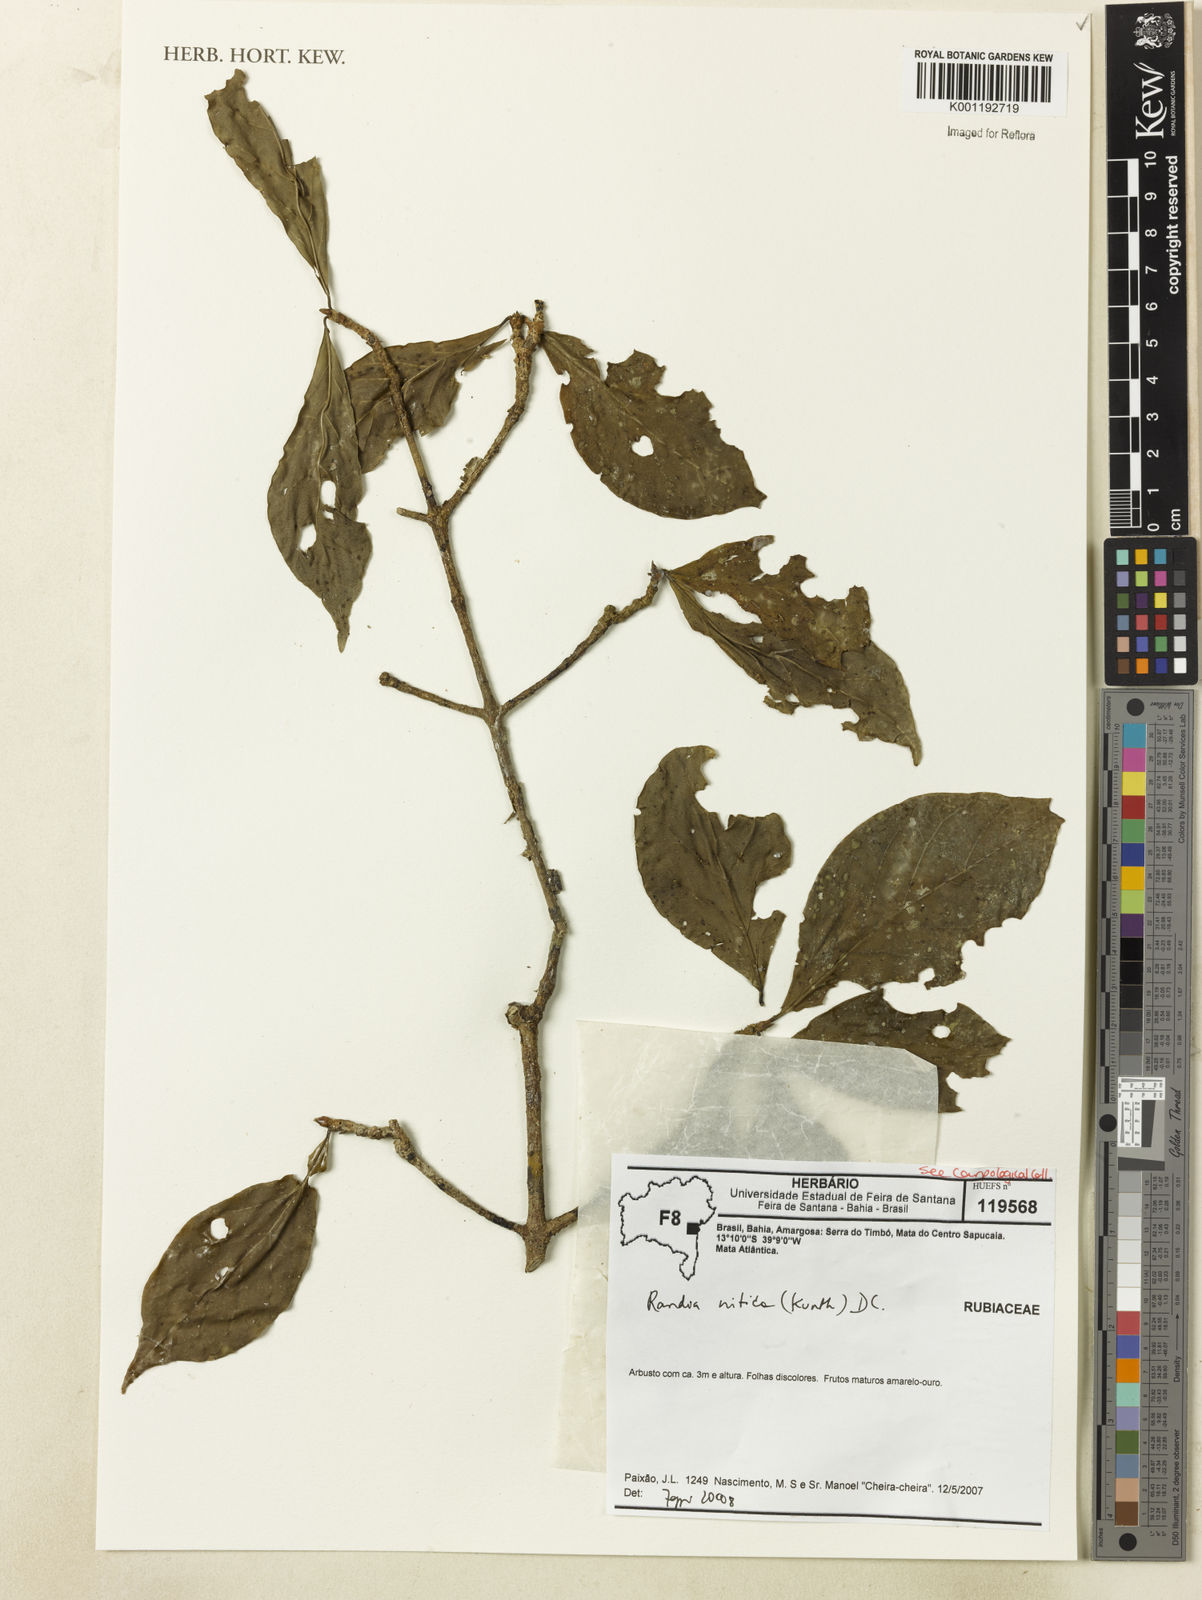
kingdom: Plantae
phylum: Tracheophyta
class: Magnoliopsida
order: Gentianales
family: Rubiaceae
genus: Randia
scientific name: Randia nitida
